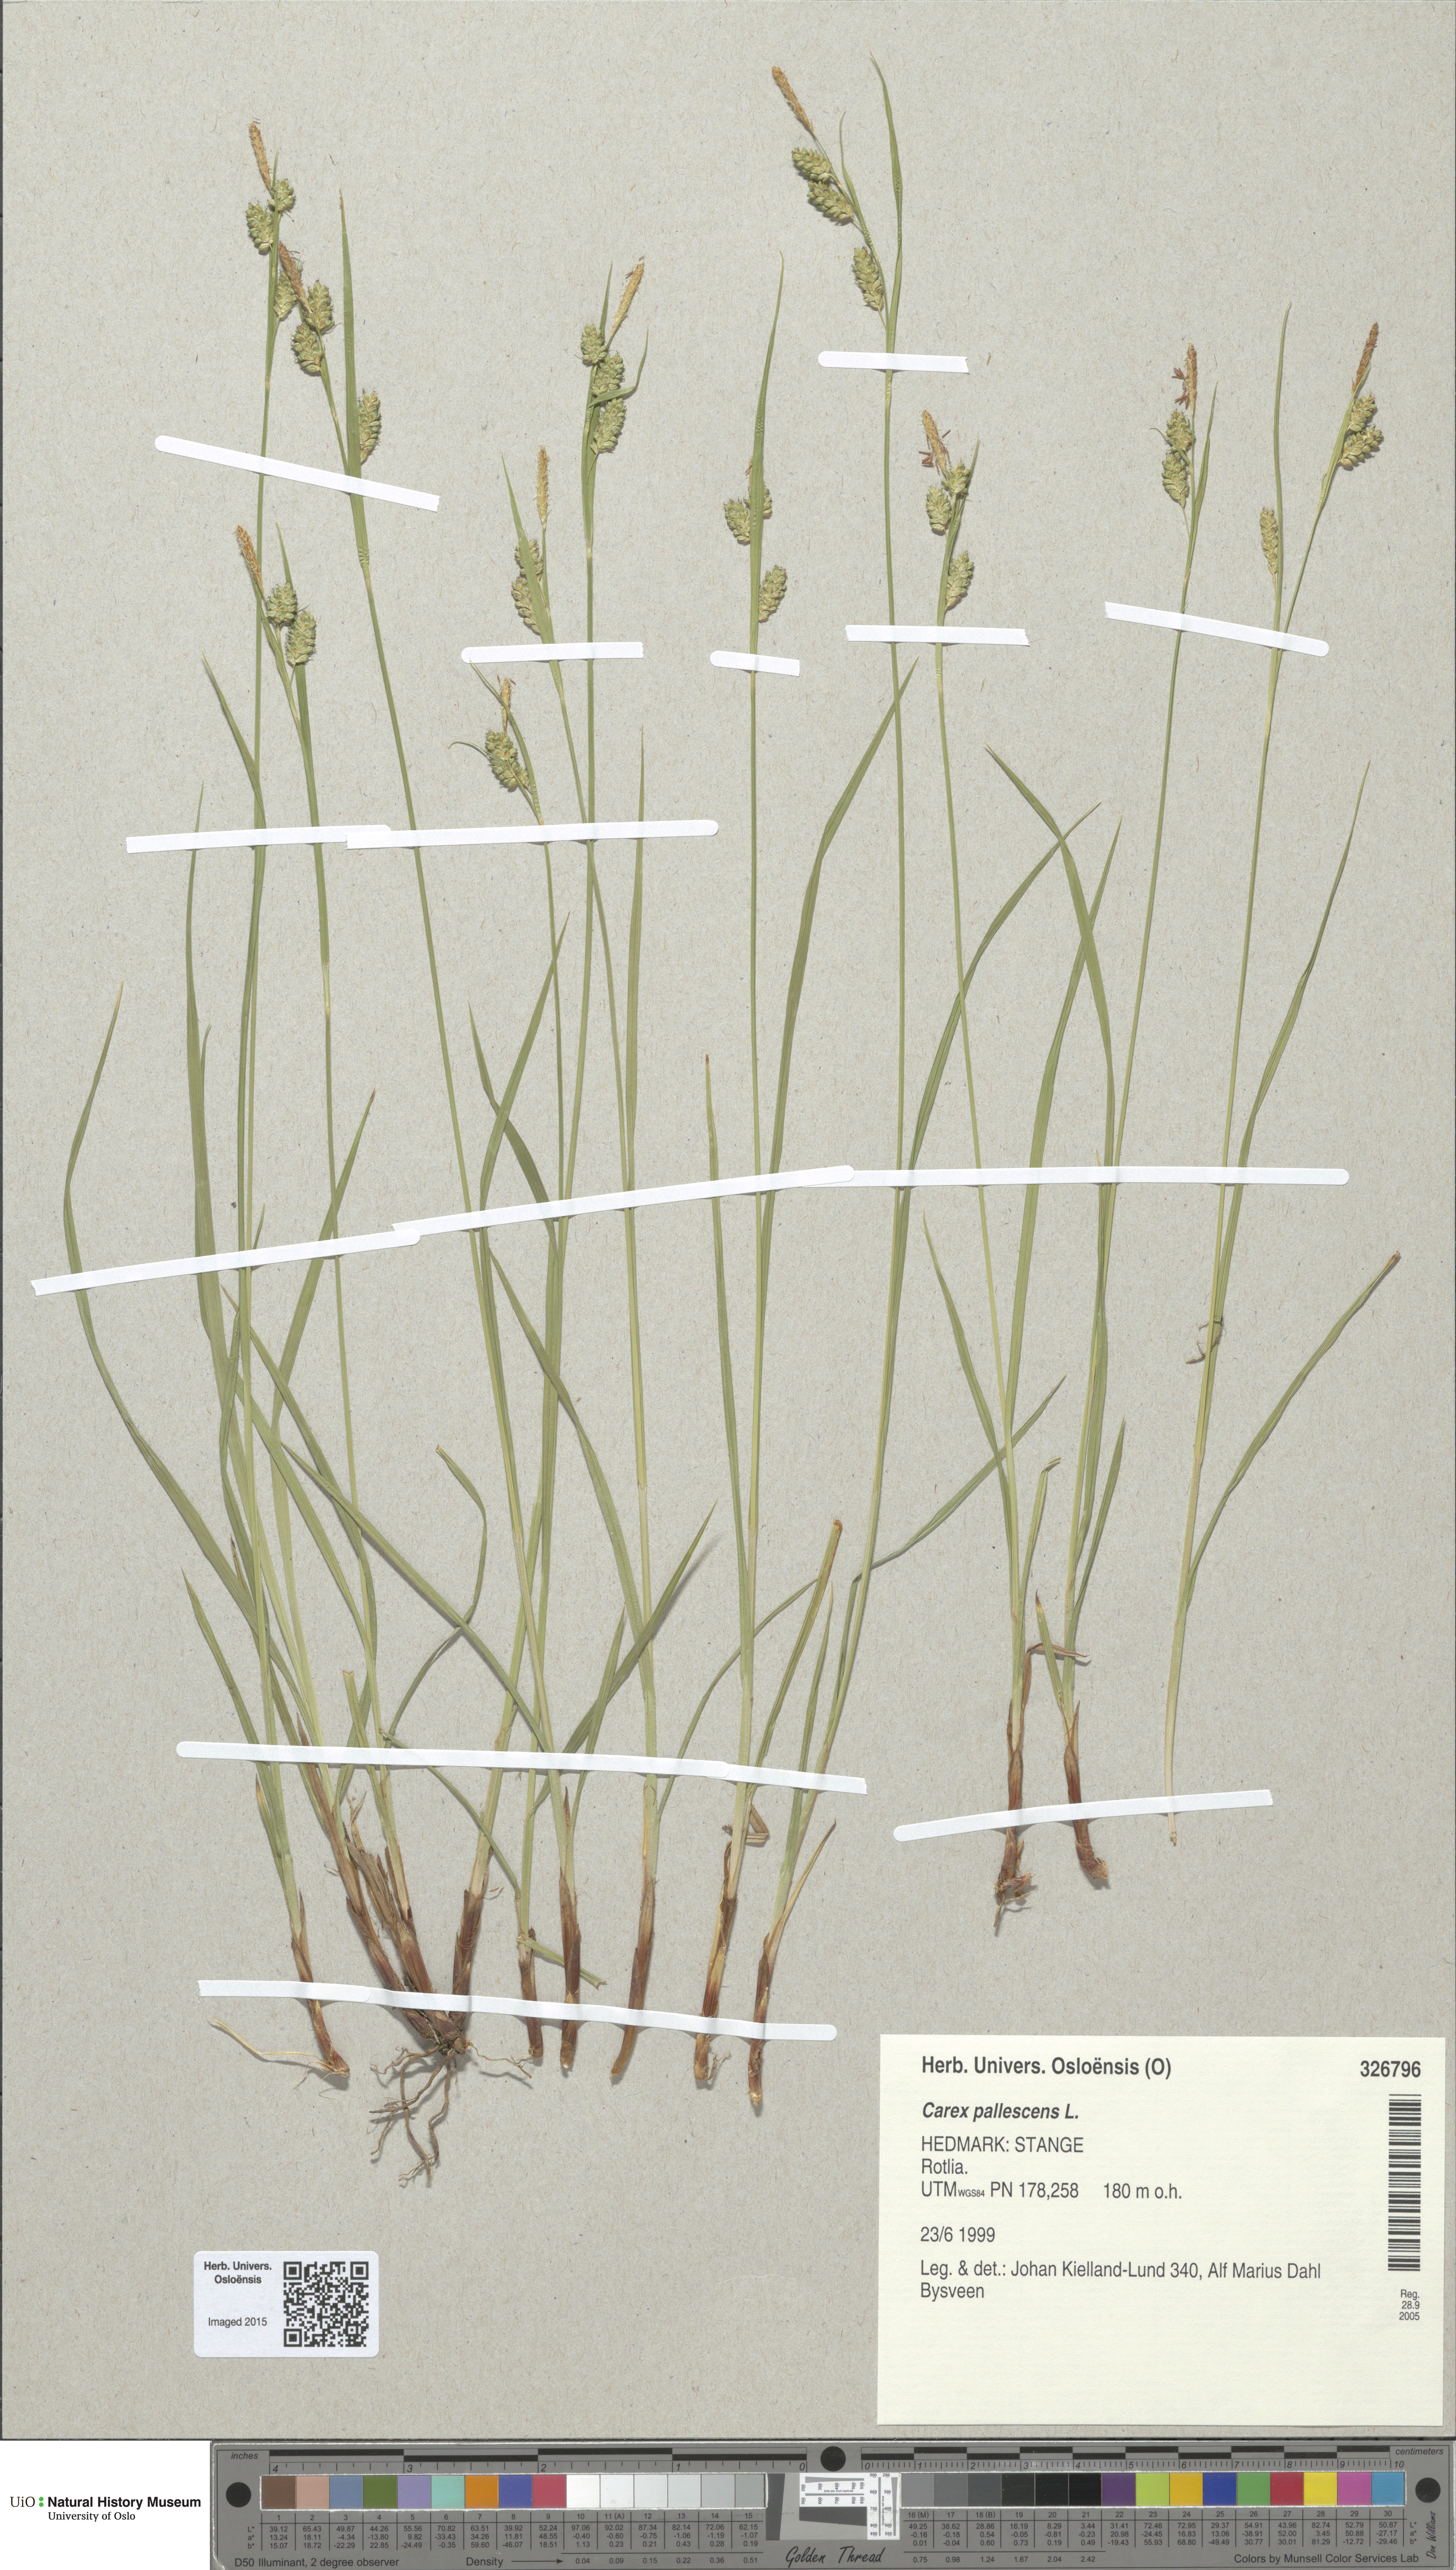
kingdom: Plantae
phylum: Tracheophyta
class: Liliopsida
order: Poales
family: Cyperaceae
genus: Carex
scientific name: Carex pallescens
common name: Pale sedge
